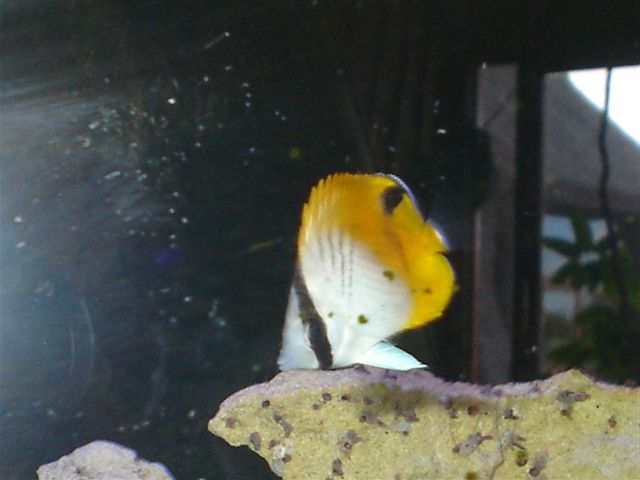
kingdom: Animalia
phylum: Chordata
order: Perciformes
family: Chaetodontidae
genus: Chaetodon
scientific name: Chaetodon auriga
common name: Threadfin butterflyfish
